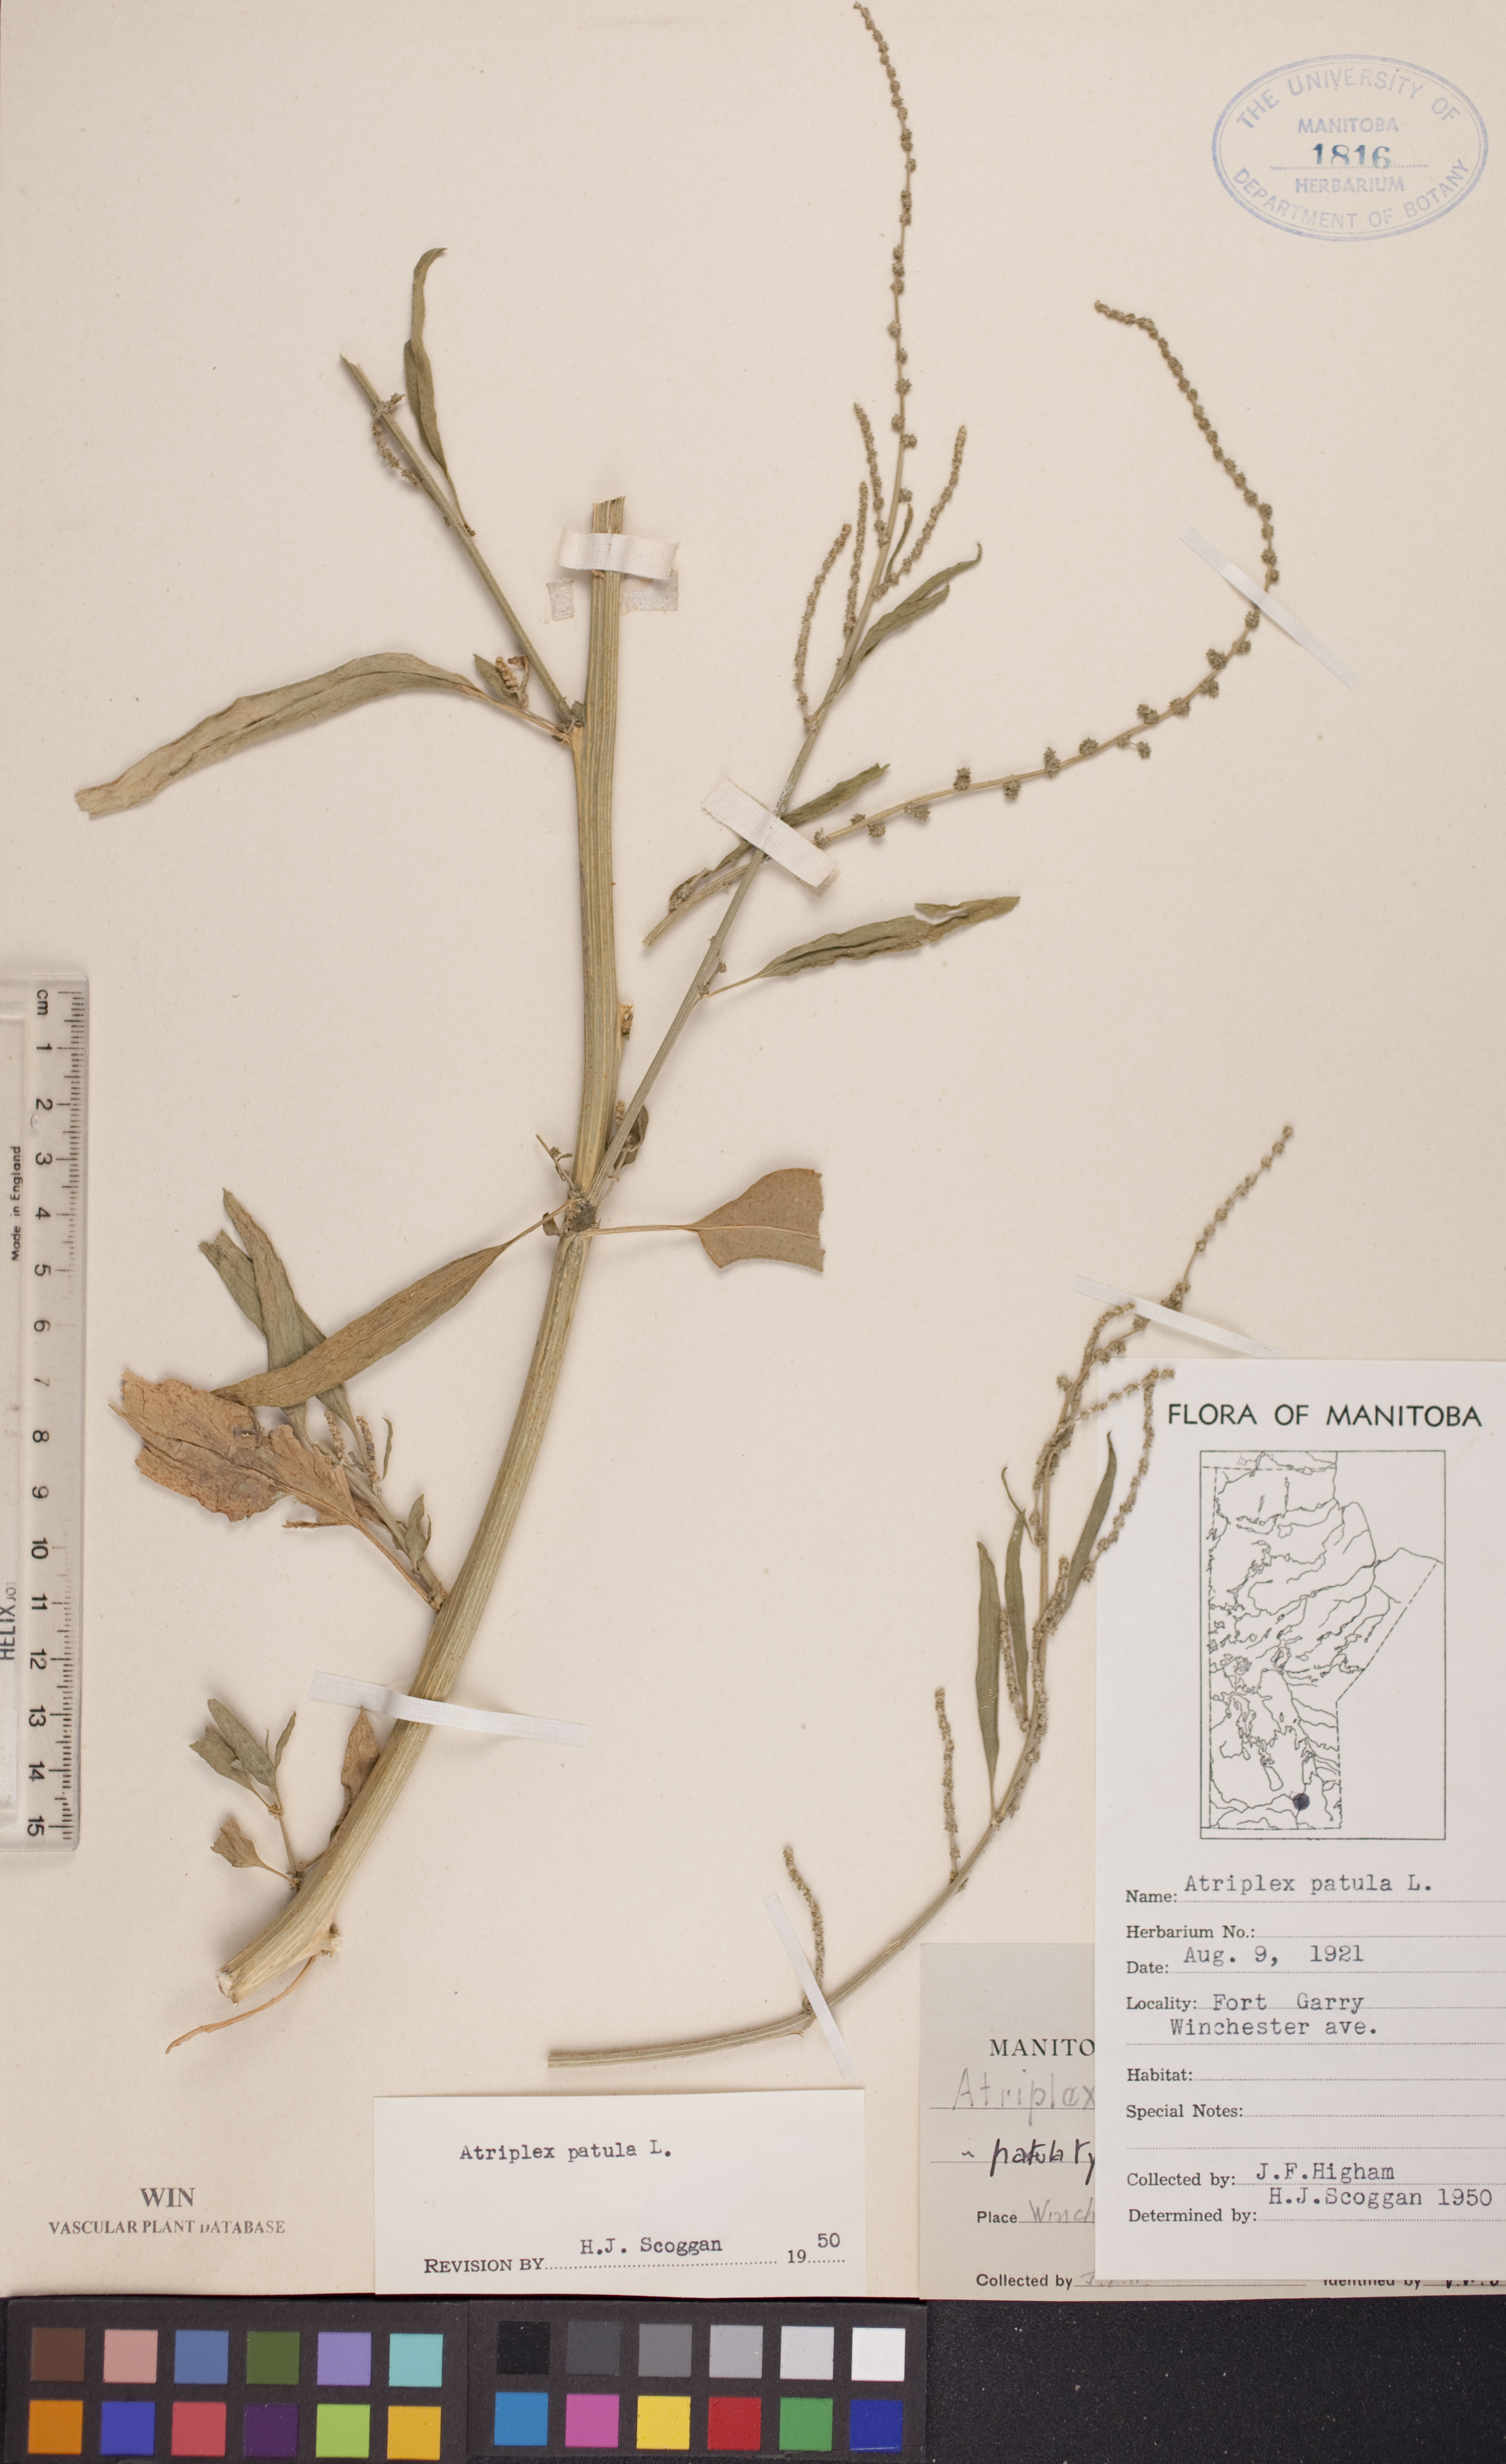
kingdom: Plantae
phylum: Tracheophyta
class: Magnoliopsida
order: Caryophyllales
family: Amaranthaceae
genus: Atriplex
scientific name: Atriplex patula
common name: Common orache
